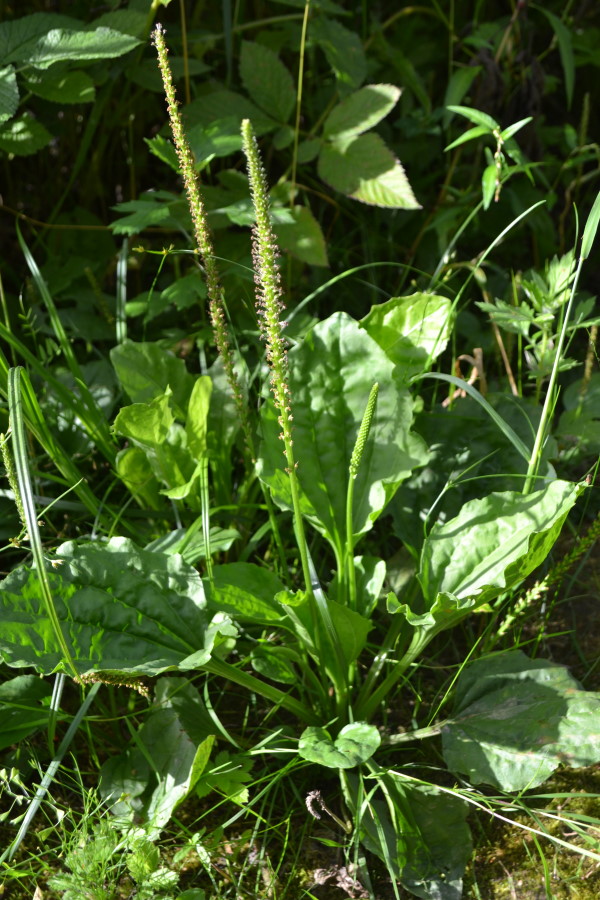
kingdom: Plantae
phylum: Tracheophyta
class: Magnoliopsida
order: Lamiales
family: Plantaginaceae
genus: Plantago
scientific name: Plantago major
